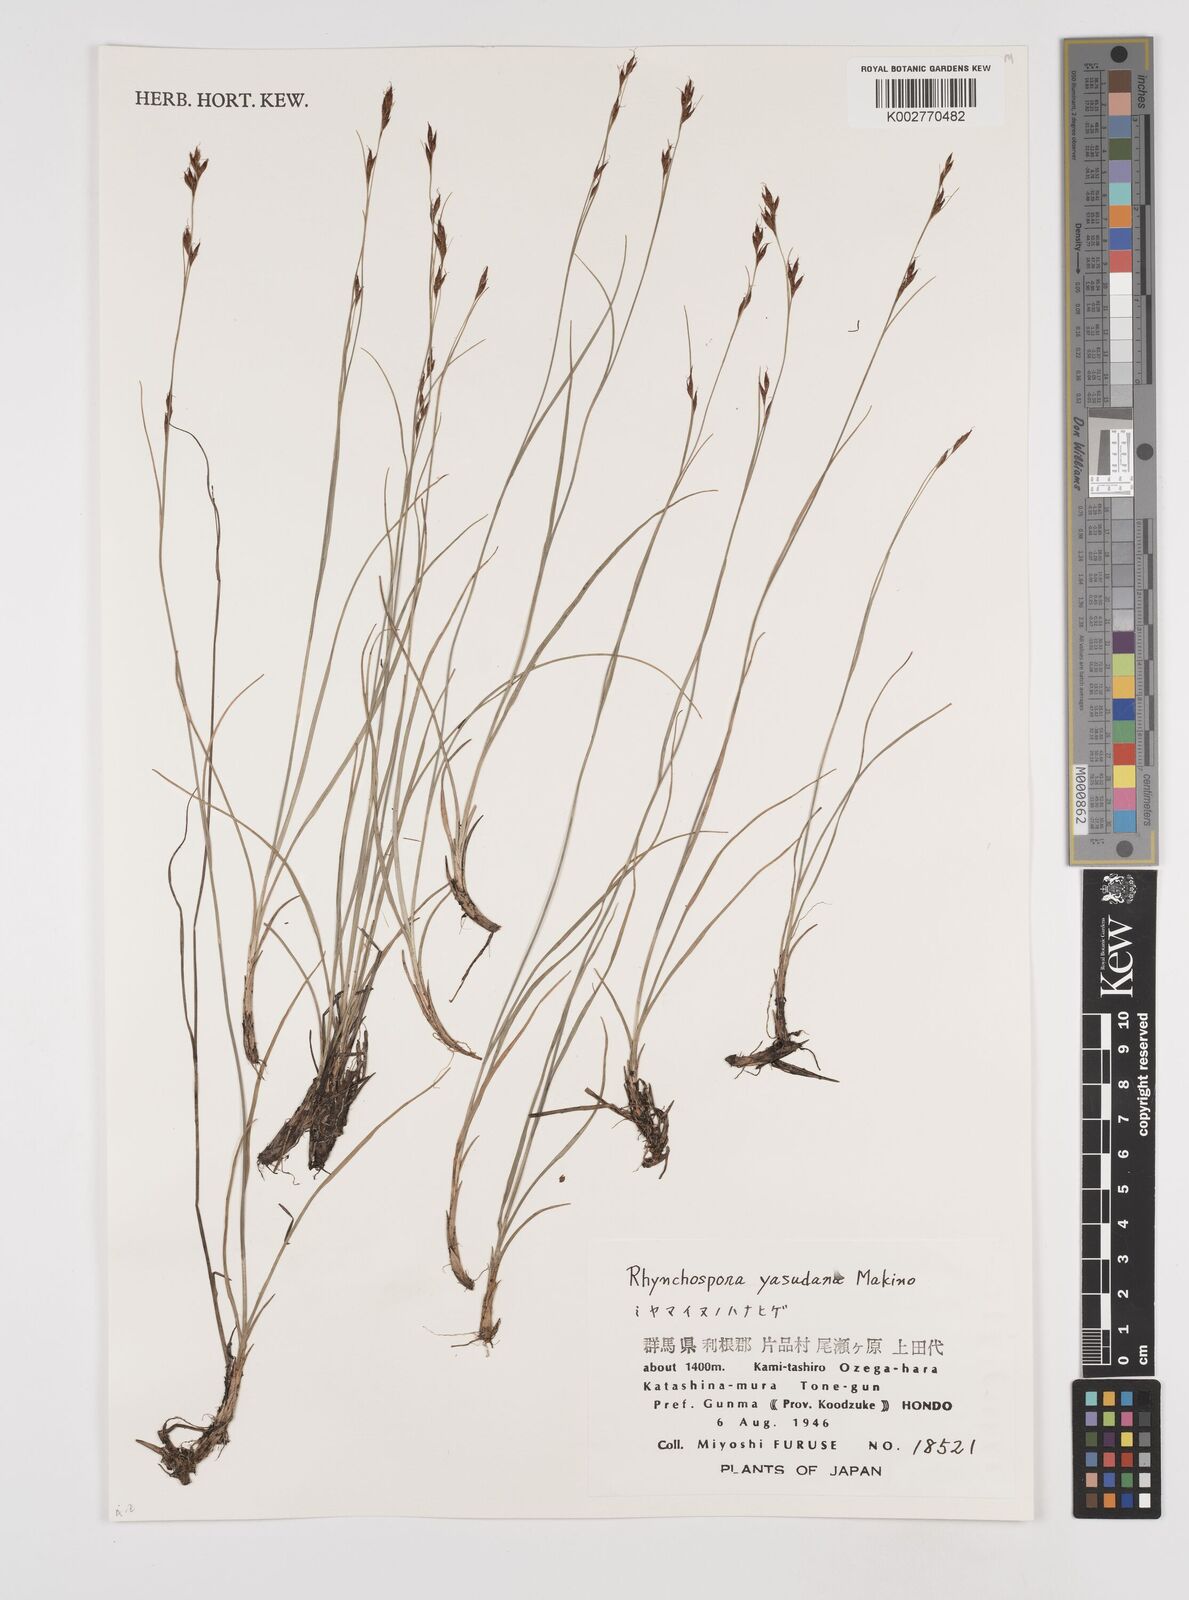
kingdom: Plantae
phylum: Tracheophyta
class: Liliopsida
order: Poales
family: Cyperaceae
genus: Rhynchospora
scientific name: Rhynchospora fujiiana
